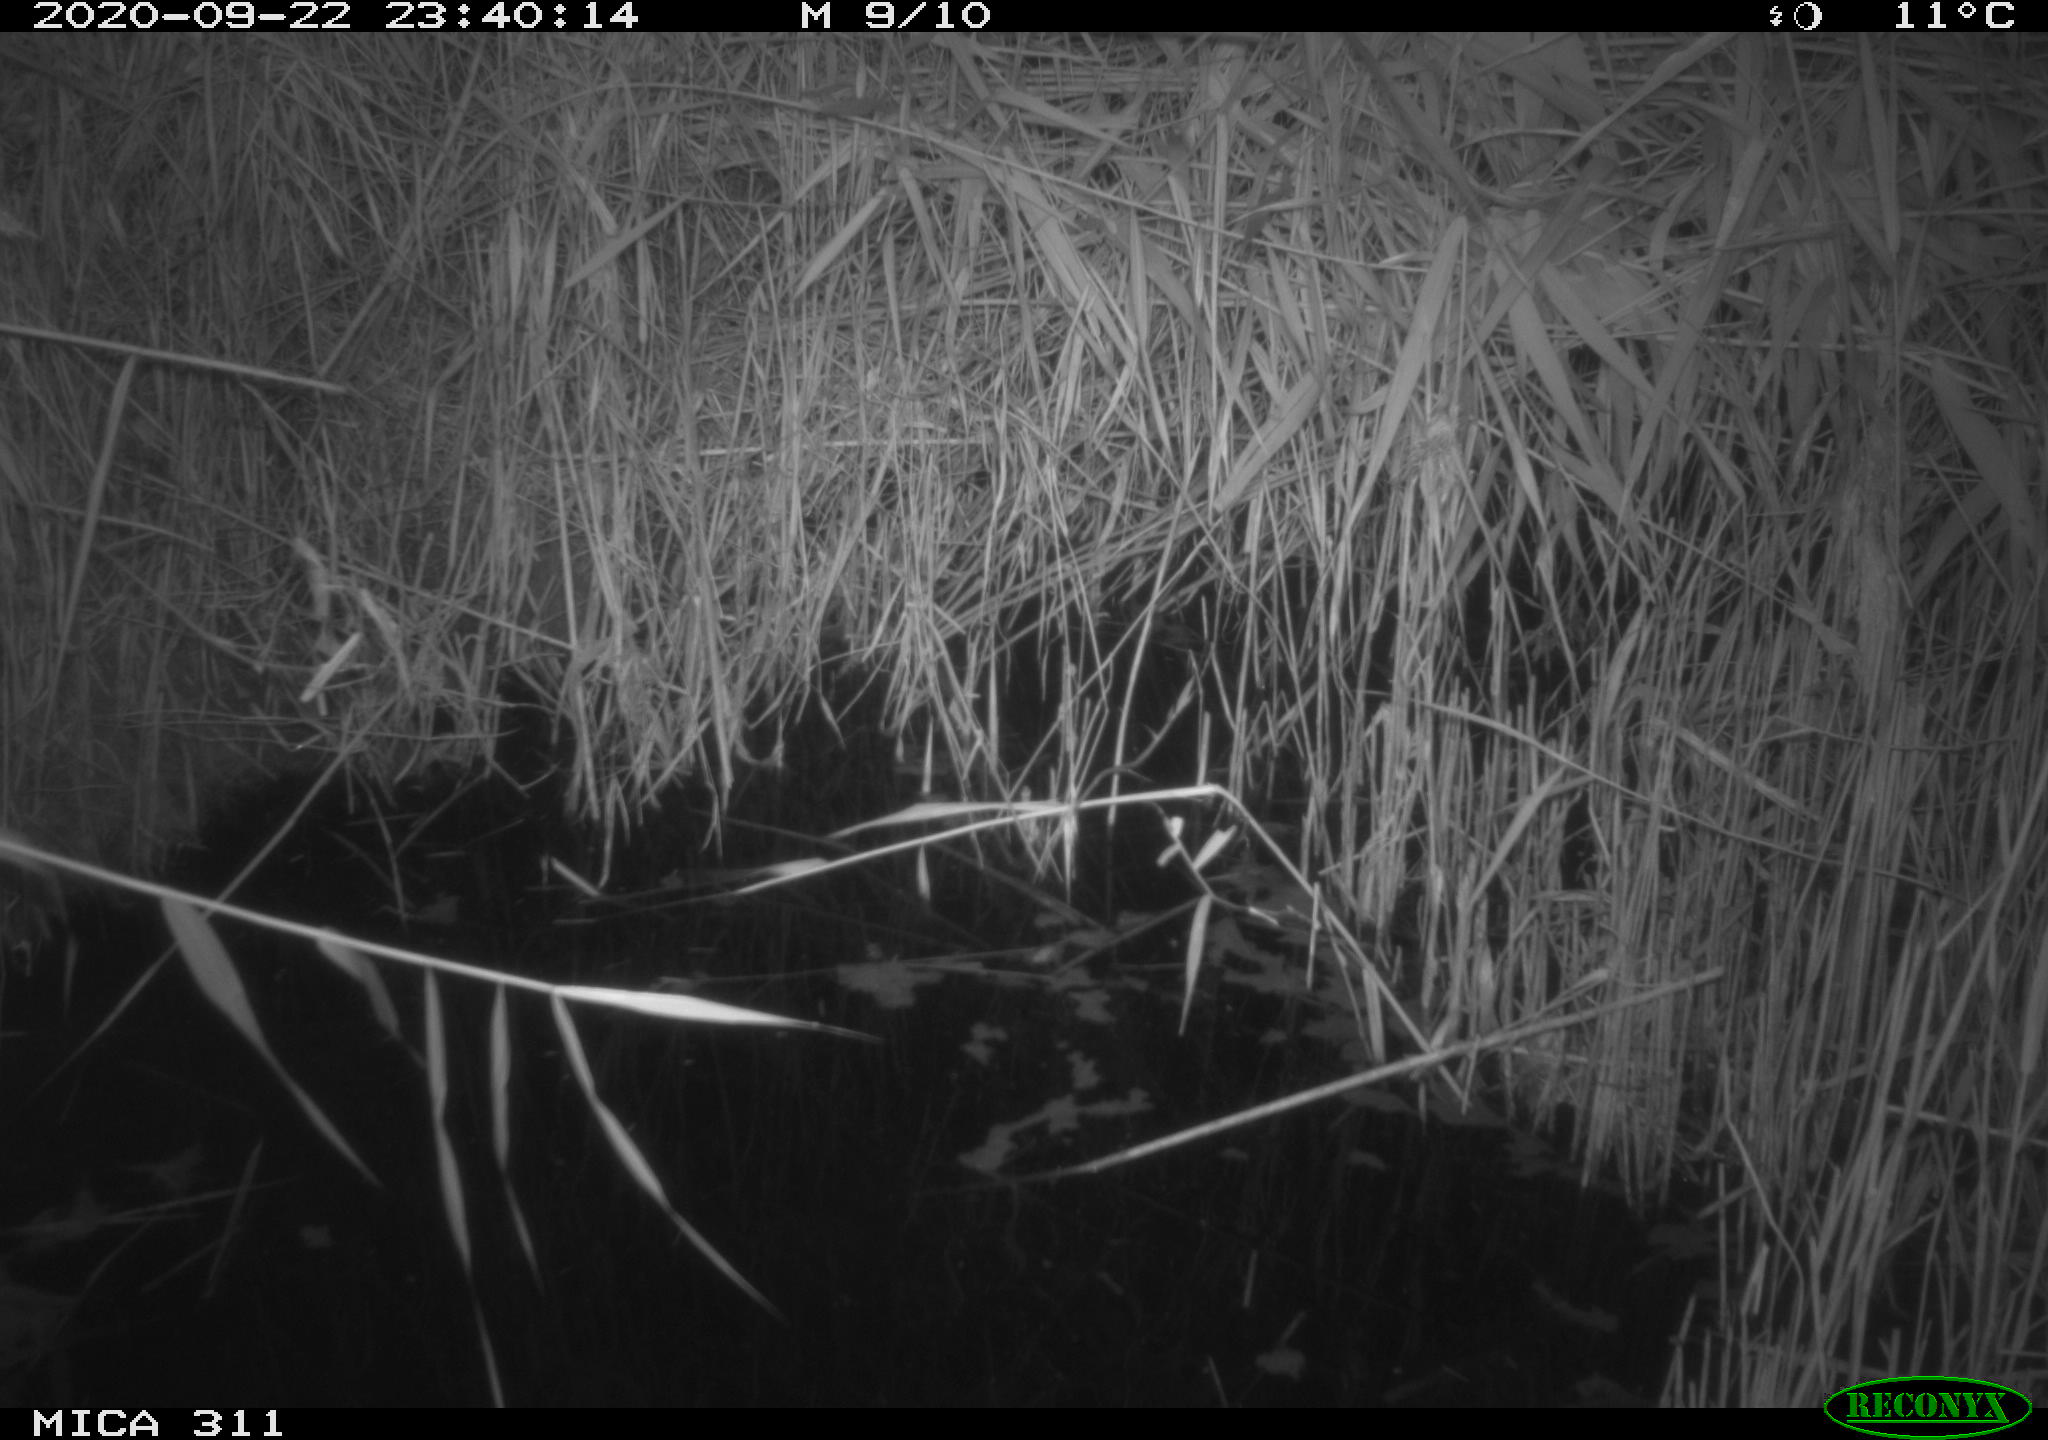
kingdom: Animalia
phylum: Chordata
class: Mammalia
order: Rodentia
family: Muridae
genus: Rattus
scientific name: Rattus norvegicus
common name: Brown rat
